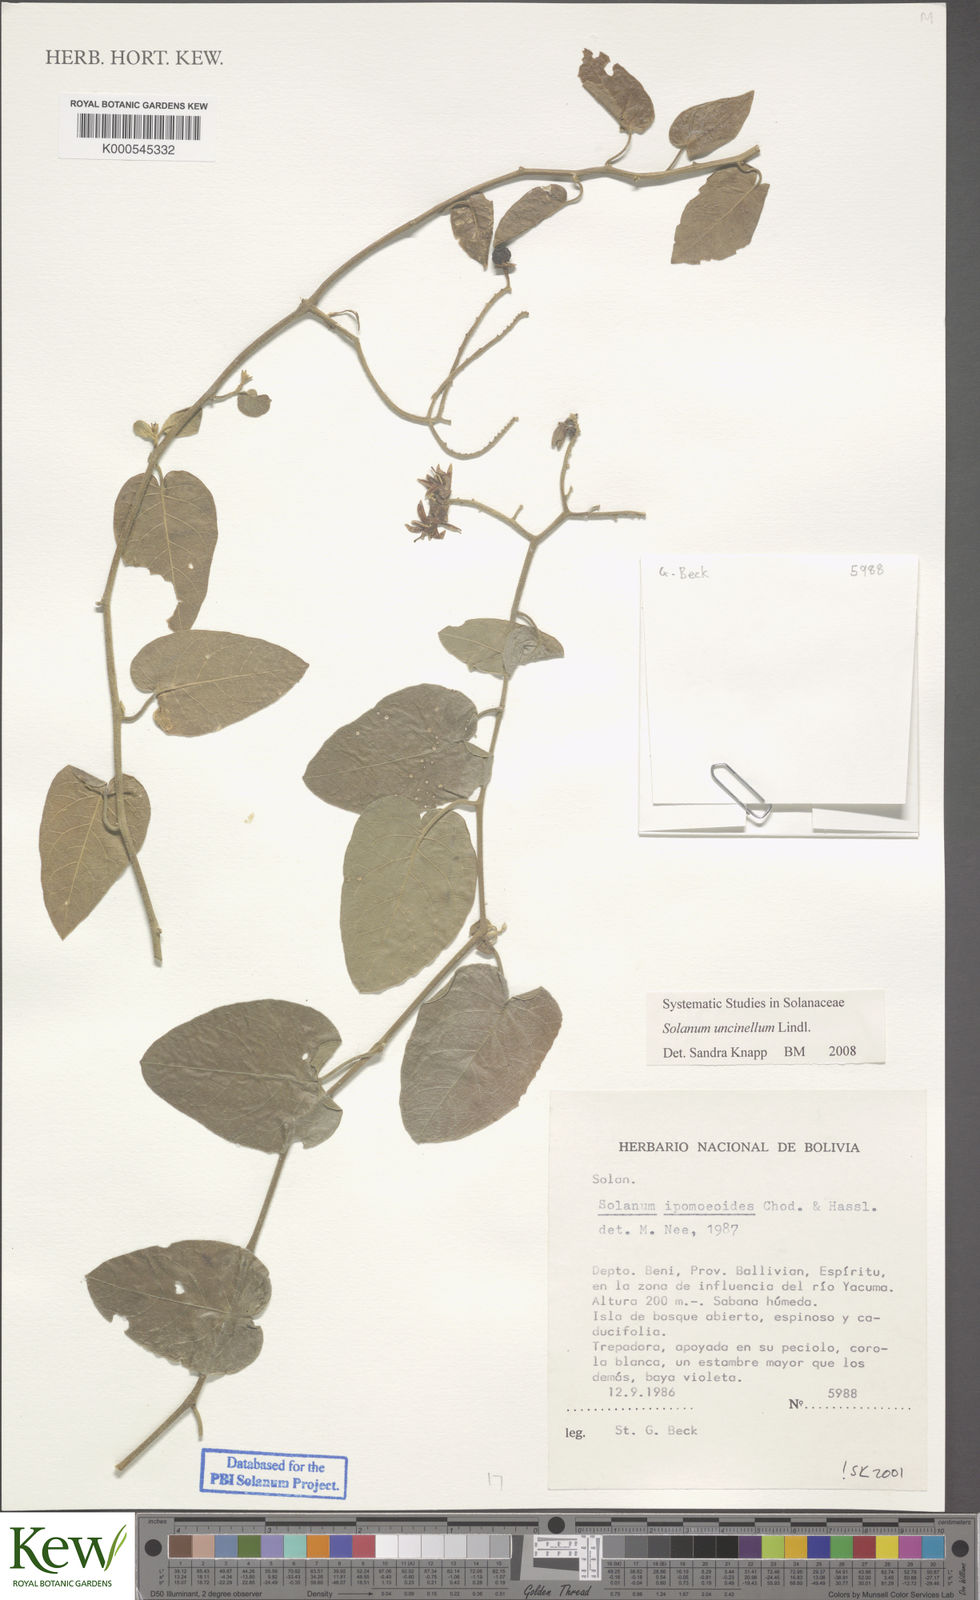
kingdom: Plantae
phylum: Tracheophyta
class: Magnoliopsida
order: Solanales
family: Solanaceae
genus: Solanum
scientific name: Solanum uncinellum
